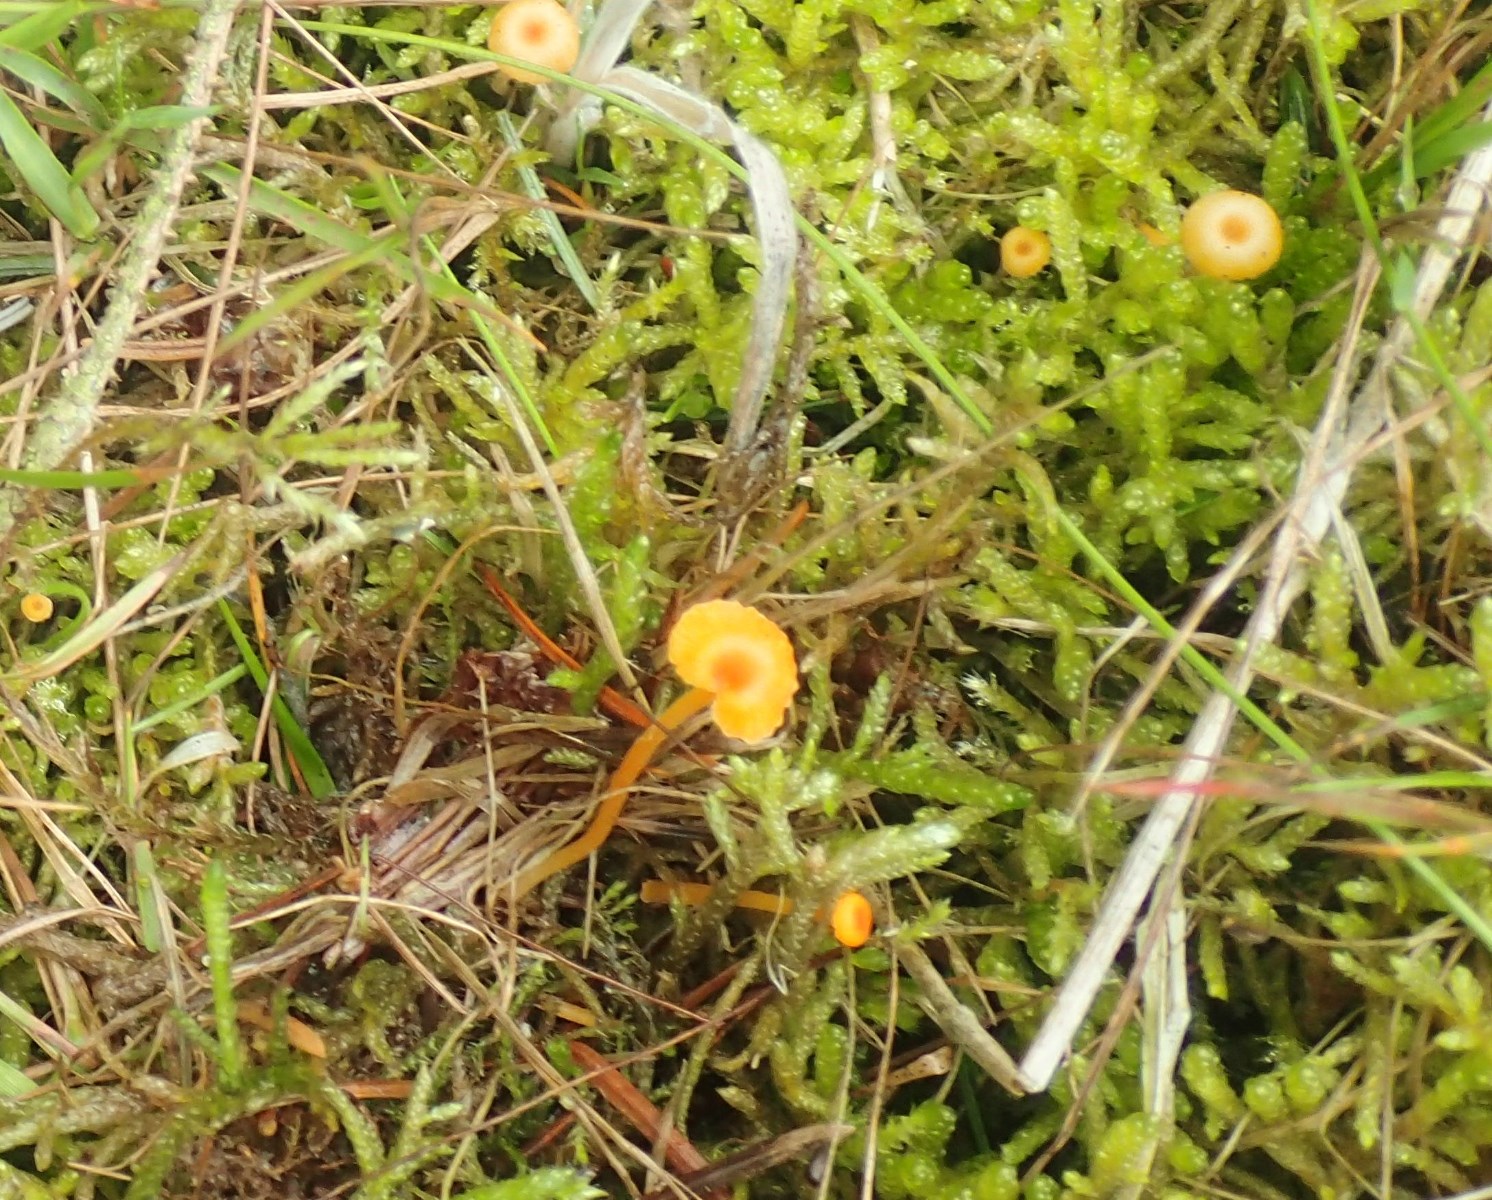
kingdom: Fungi
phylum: Basidiomycota
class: Agaricomycetes
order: Hymenochaetales
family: Rickenellaceae
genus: Rickenella
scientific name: Rickenella fibula
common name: orange mosnavlehat
